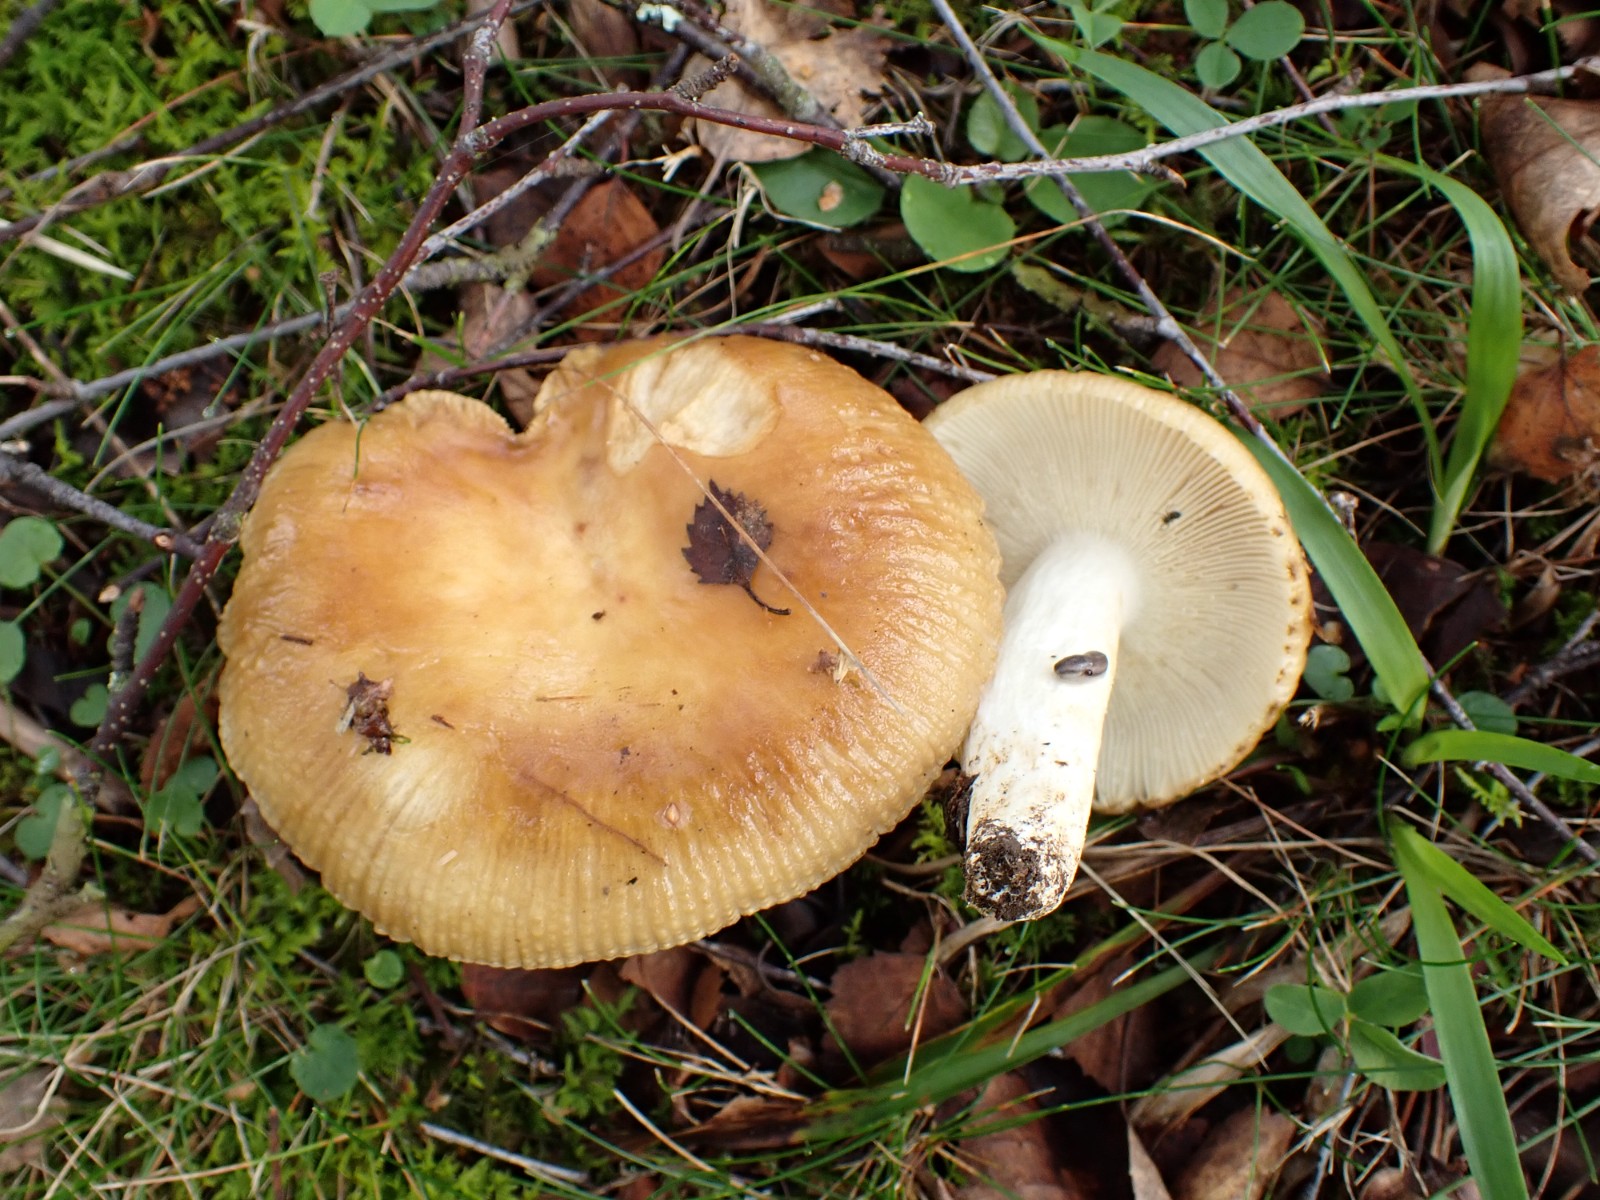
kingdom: Fungi
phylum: Basidiomycota
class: Agaricomycetes
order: Russulales
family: Russulaceae
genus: Russula
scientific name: Russula foetens
